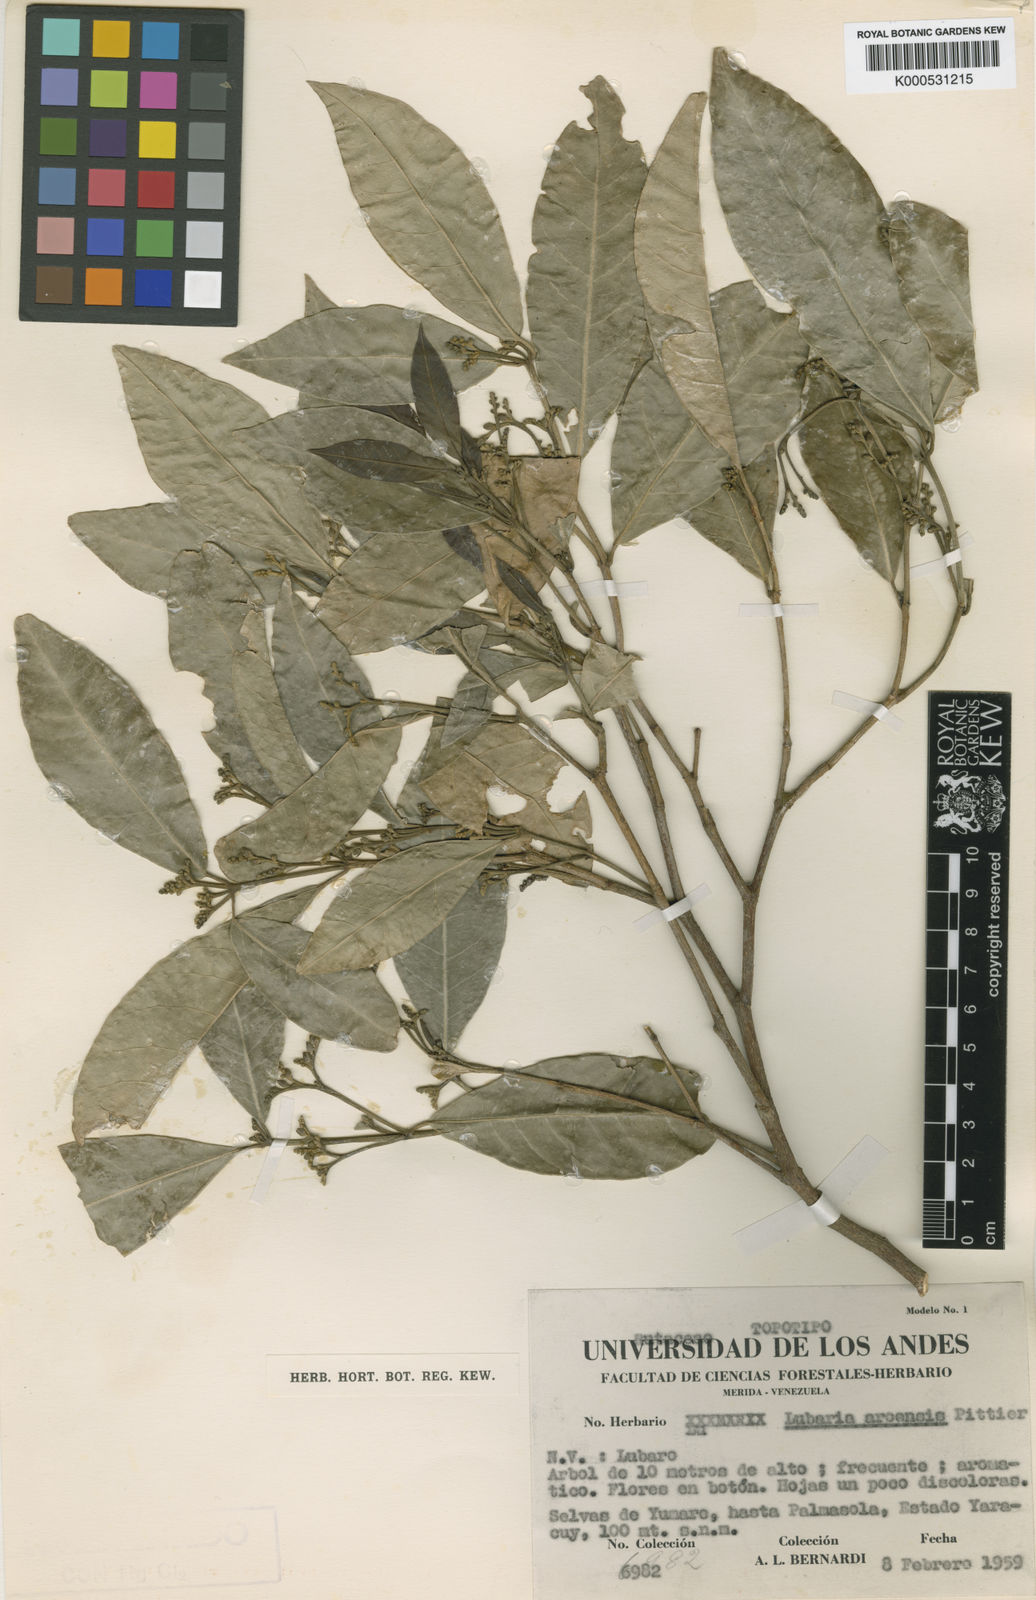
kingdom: Plantae
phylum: Tracheophyta
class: Magnoliopsida
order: Sapindales
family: Rutaceae
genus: Lubaria
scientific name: Lubaria aroensis
